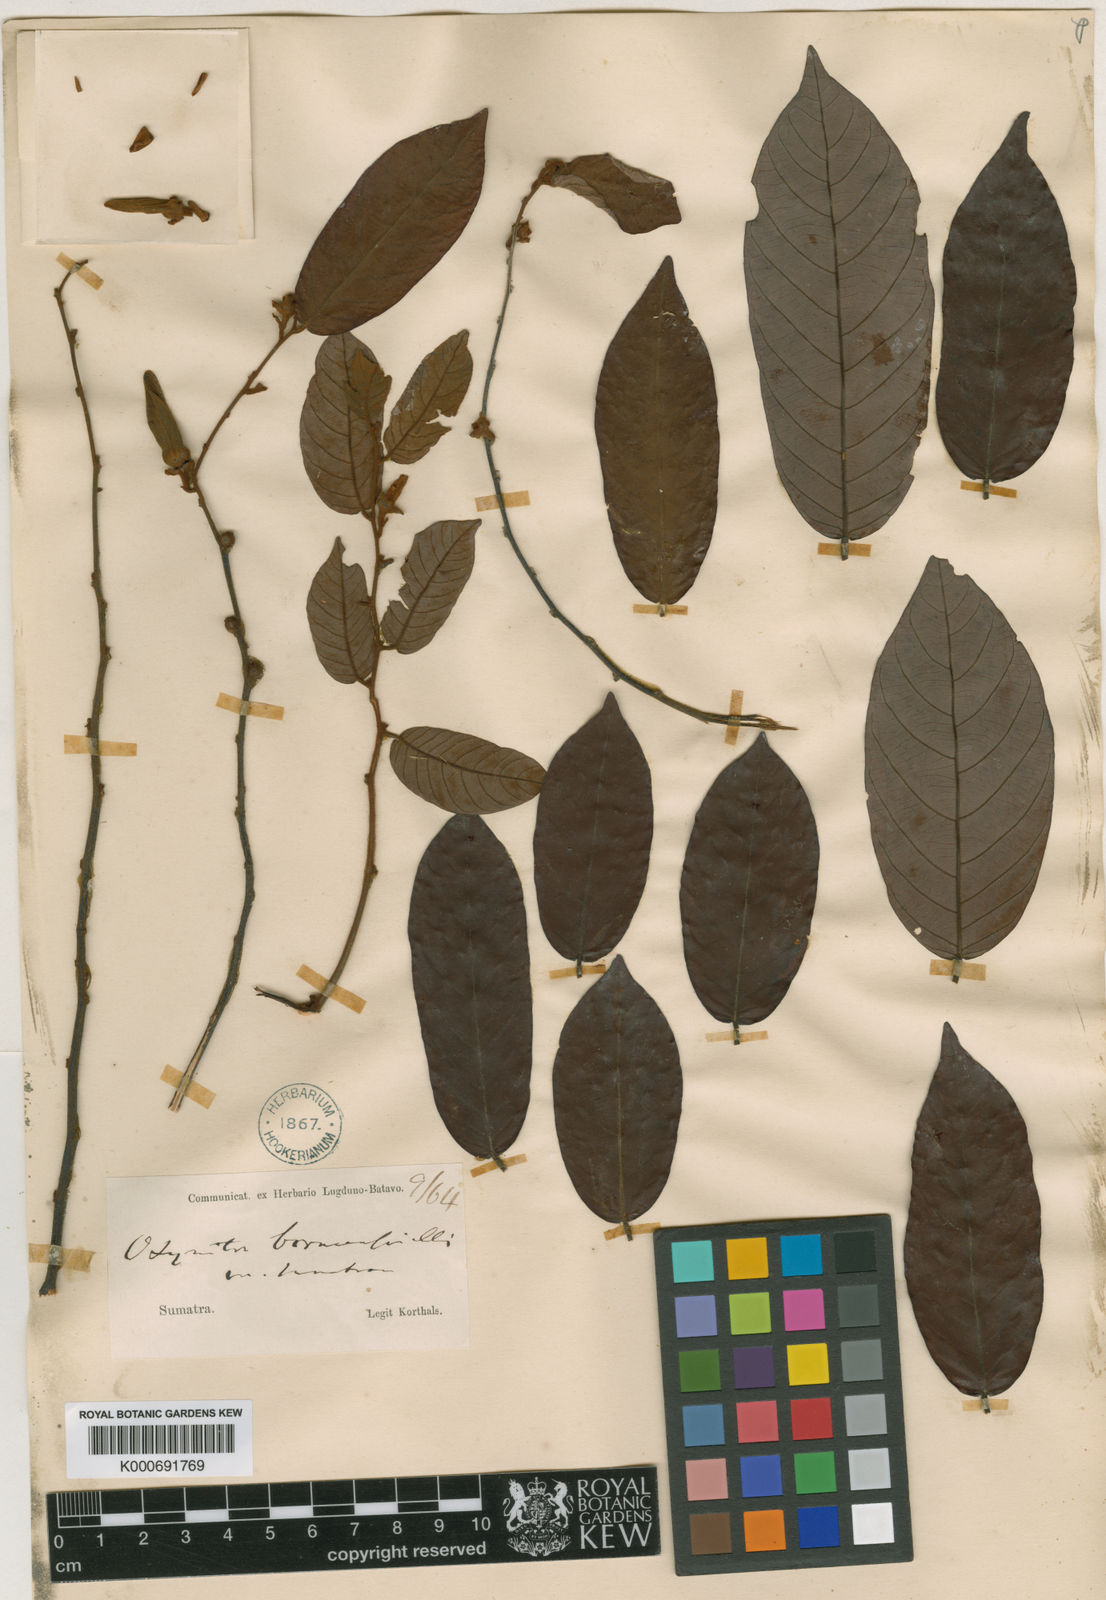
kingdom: Plantae
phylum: Tracheophyta
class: Magnoliopsida
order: Magnoliales
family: Annonaceae
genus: Friesodielsia
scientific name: Friesodielsia borneensis
